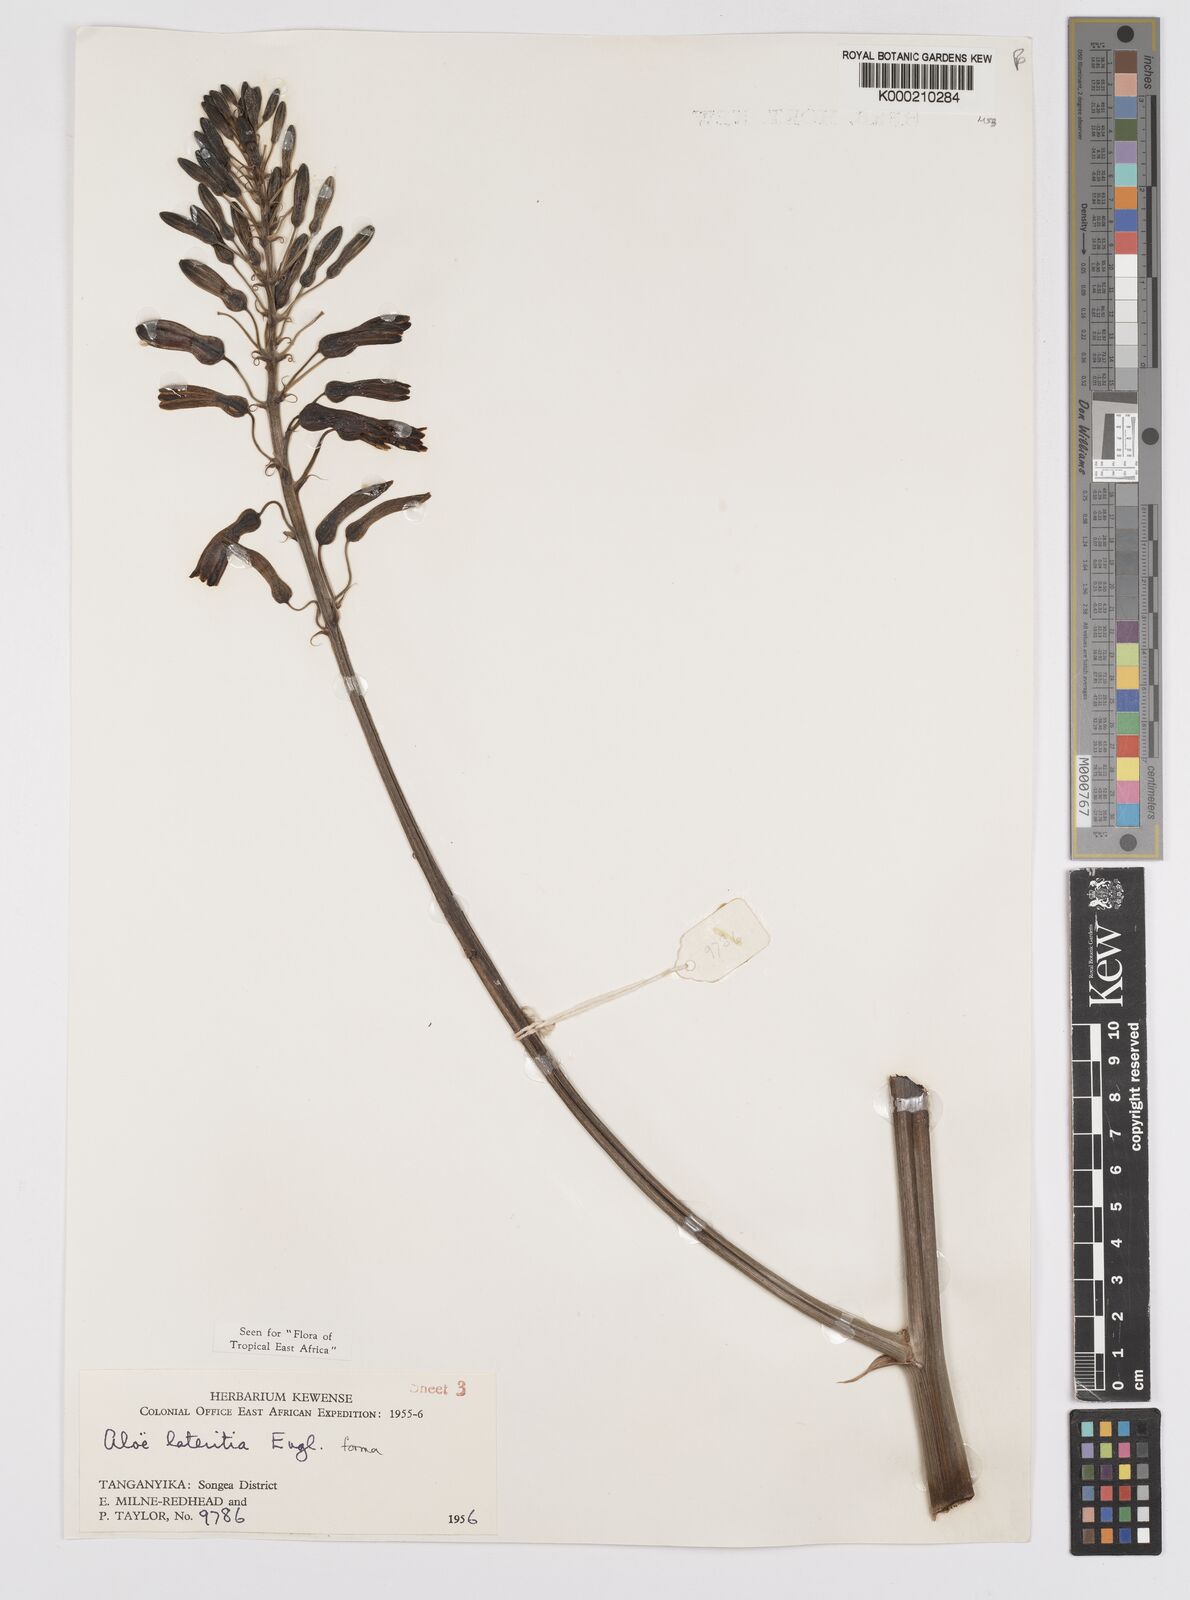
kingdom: Plantae
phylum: Tracheophyta
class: Liliopsida
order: Asparagales
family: Asphodelaceae
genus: Aloe
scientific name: Aloe lateritia
